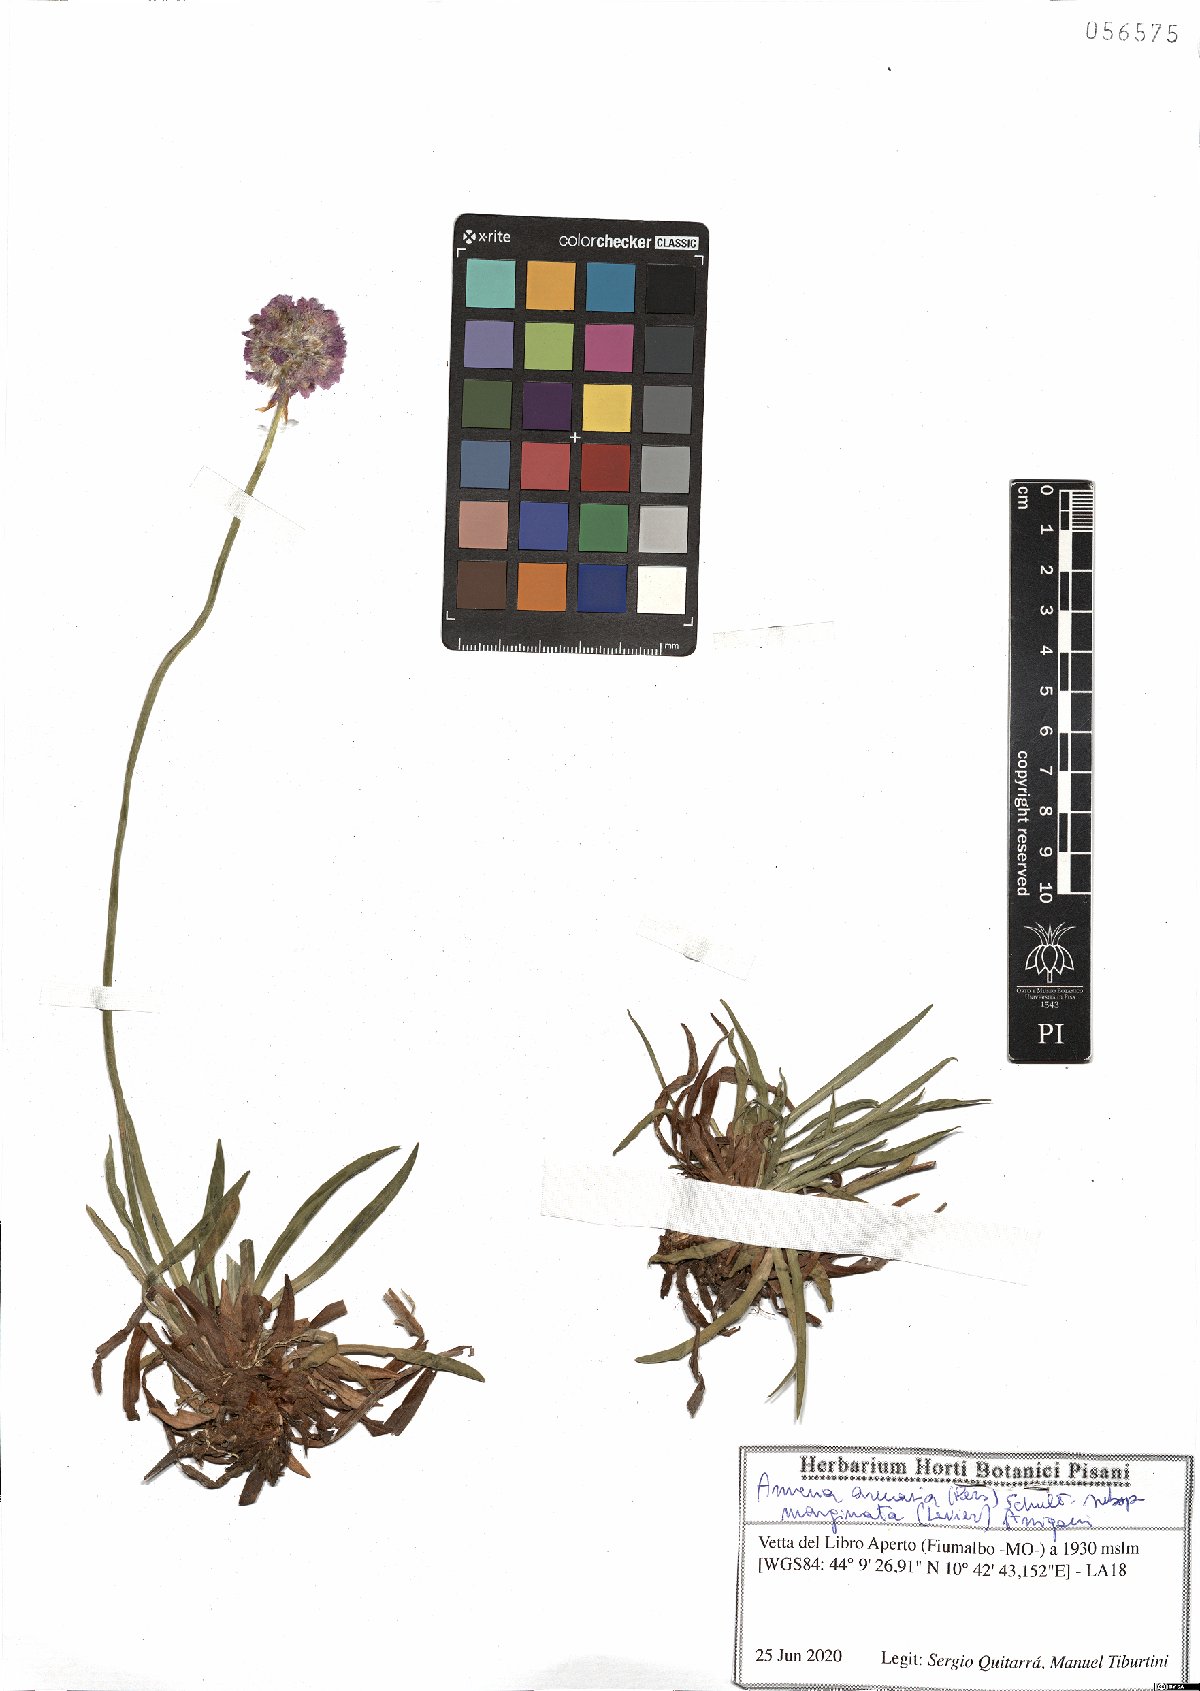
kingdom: Plantae
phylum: Tracheophyta
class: Magnoliopsida
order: Caryophyllales
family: Plumbaginaceae
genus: Armeria
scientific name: Armeria arenaria
